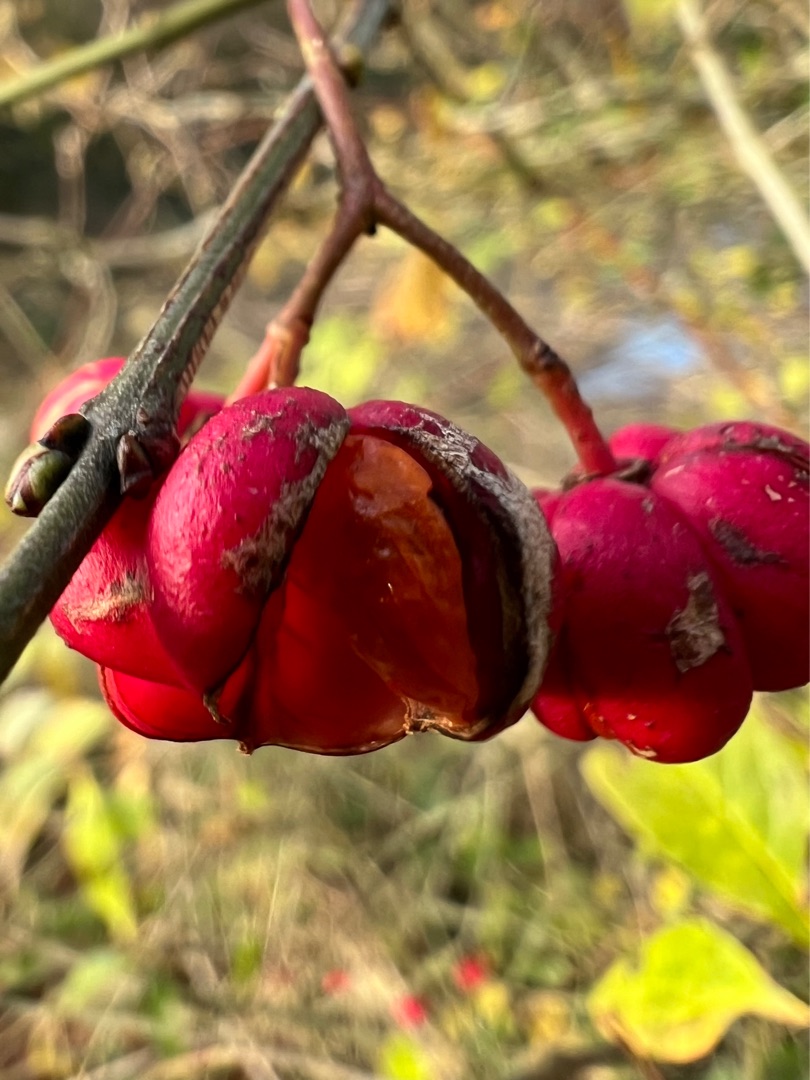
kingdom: Plantae
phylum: Tracheophyta
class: Magnoliopsida
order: Celastrales
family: Celastraceae
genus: Euonymus
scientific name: Euonymus europaeus
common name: Benved
